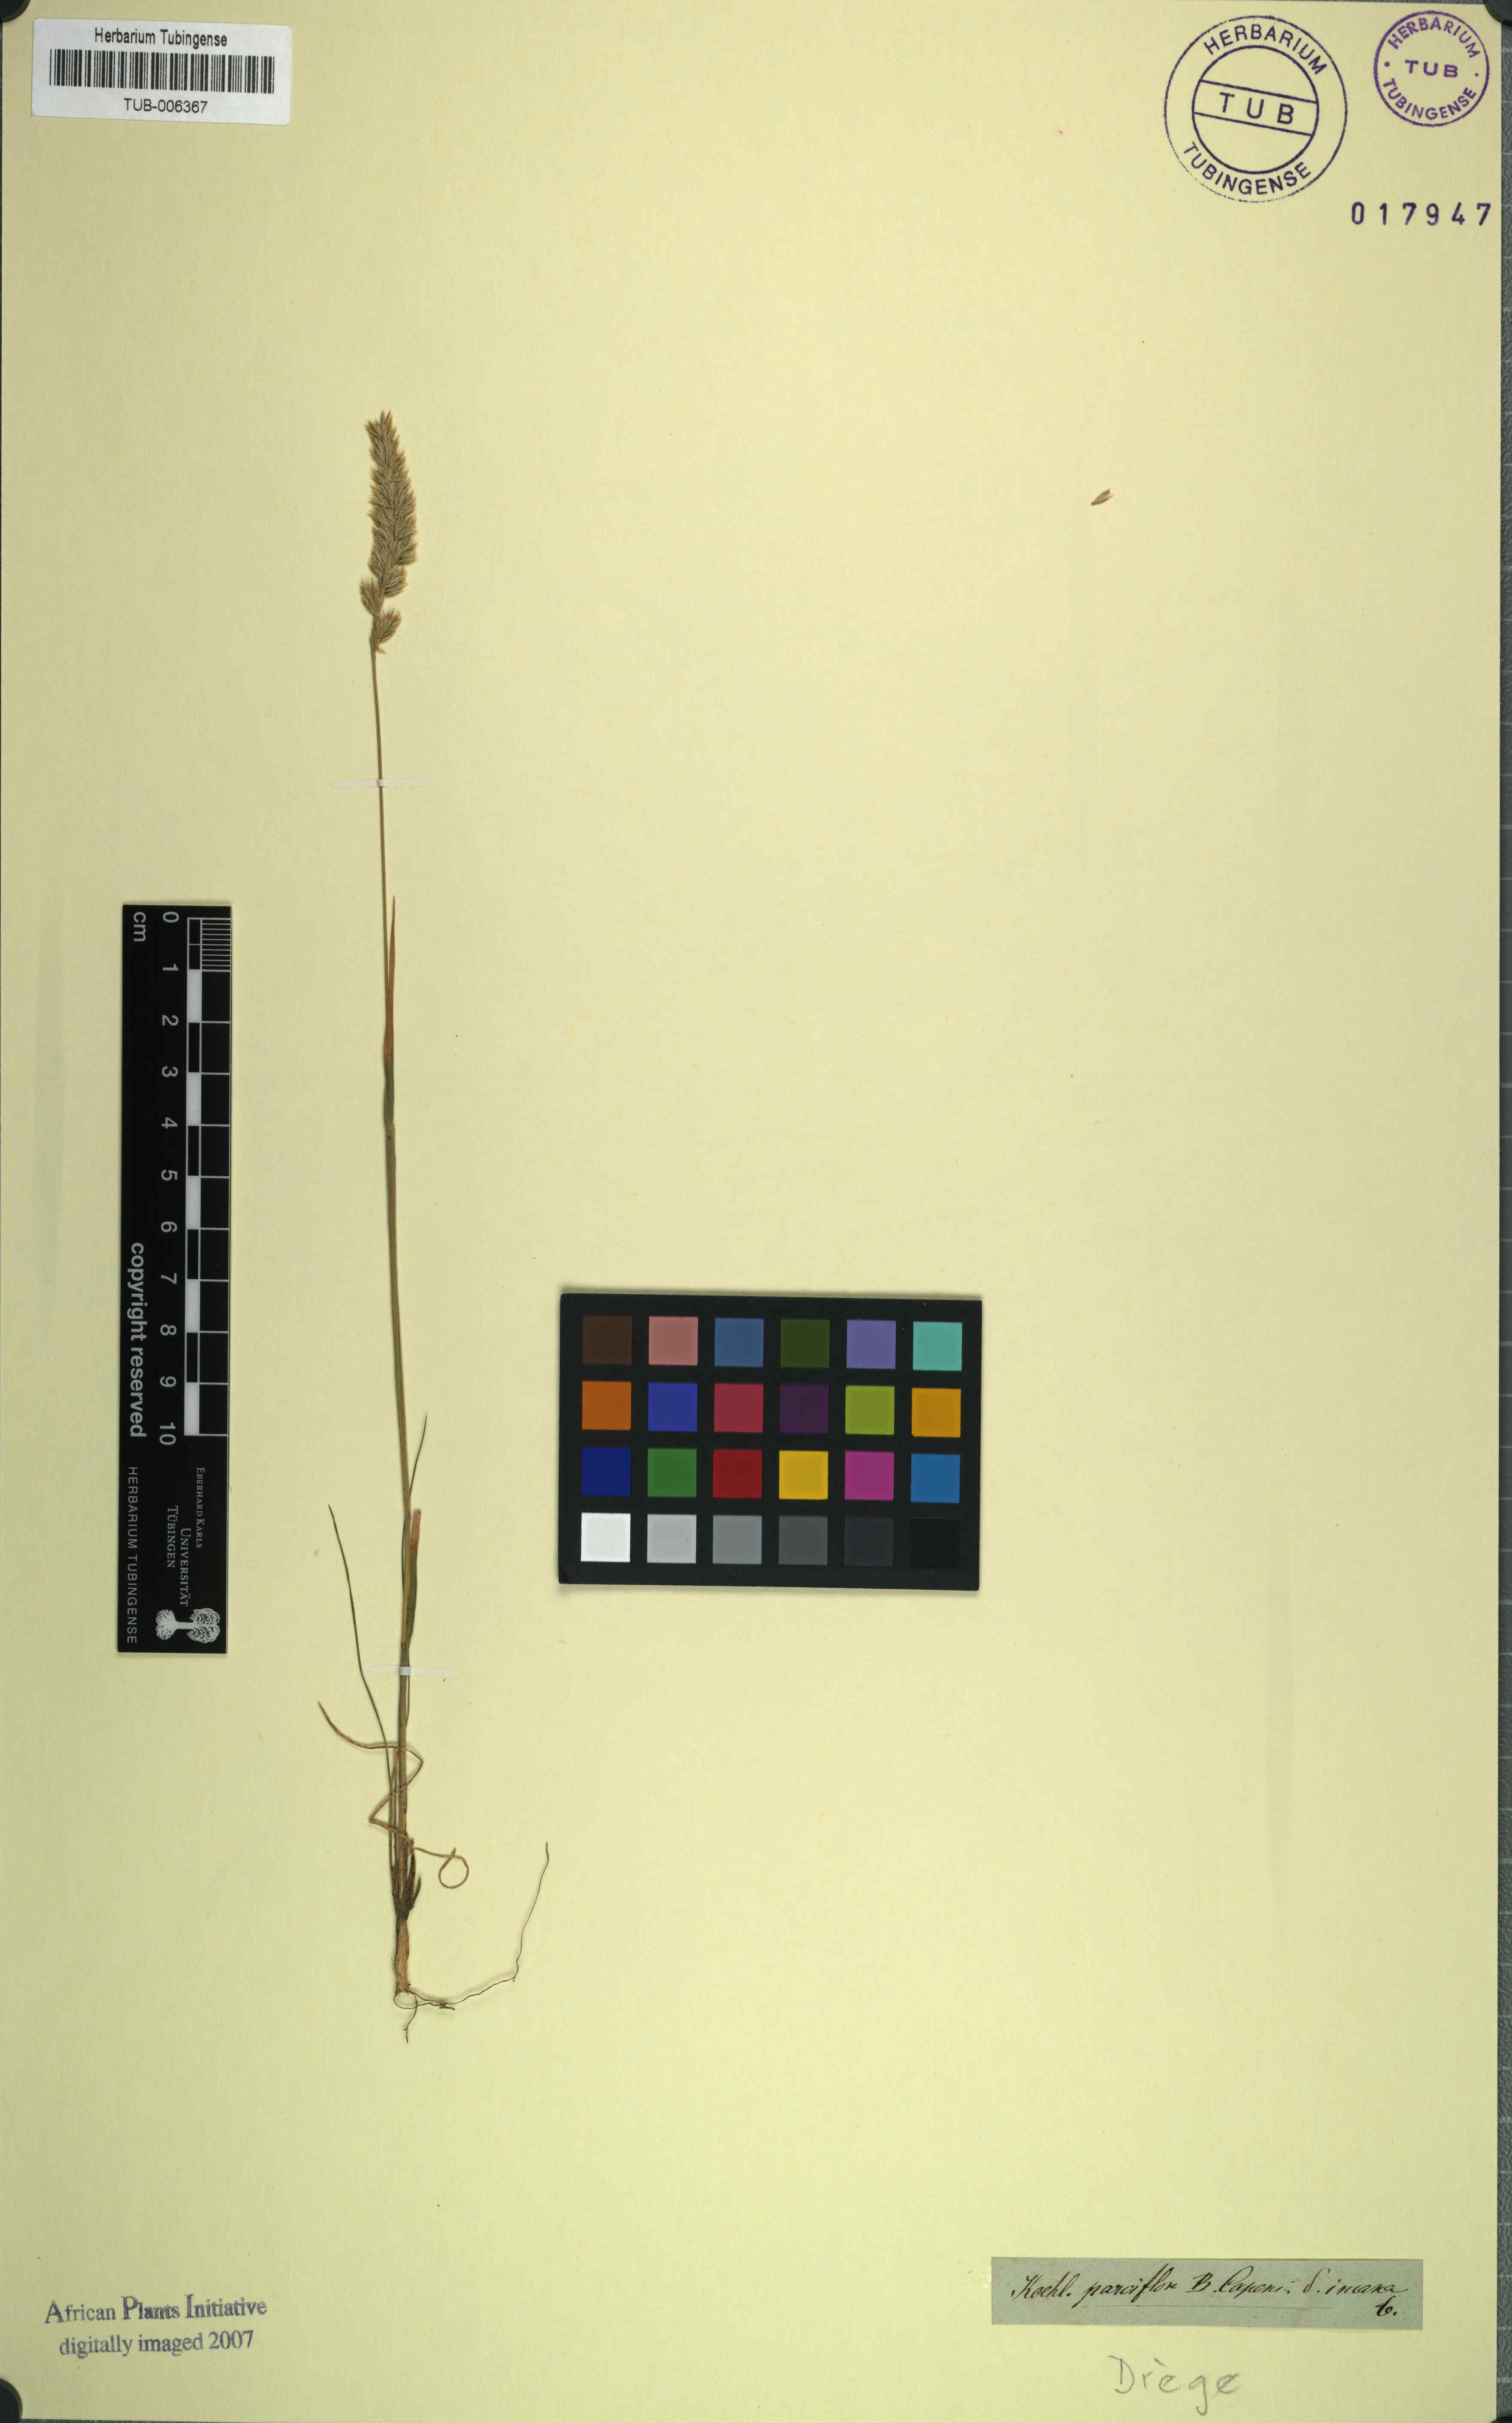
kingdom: Plantae
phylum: Tracheophyta
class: Liliopsida
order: Poales
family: Poaceae
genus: Trisetaria
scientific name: Trisetaria parviflora
